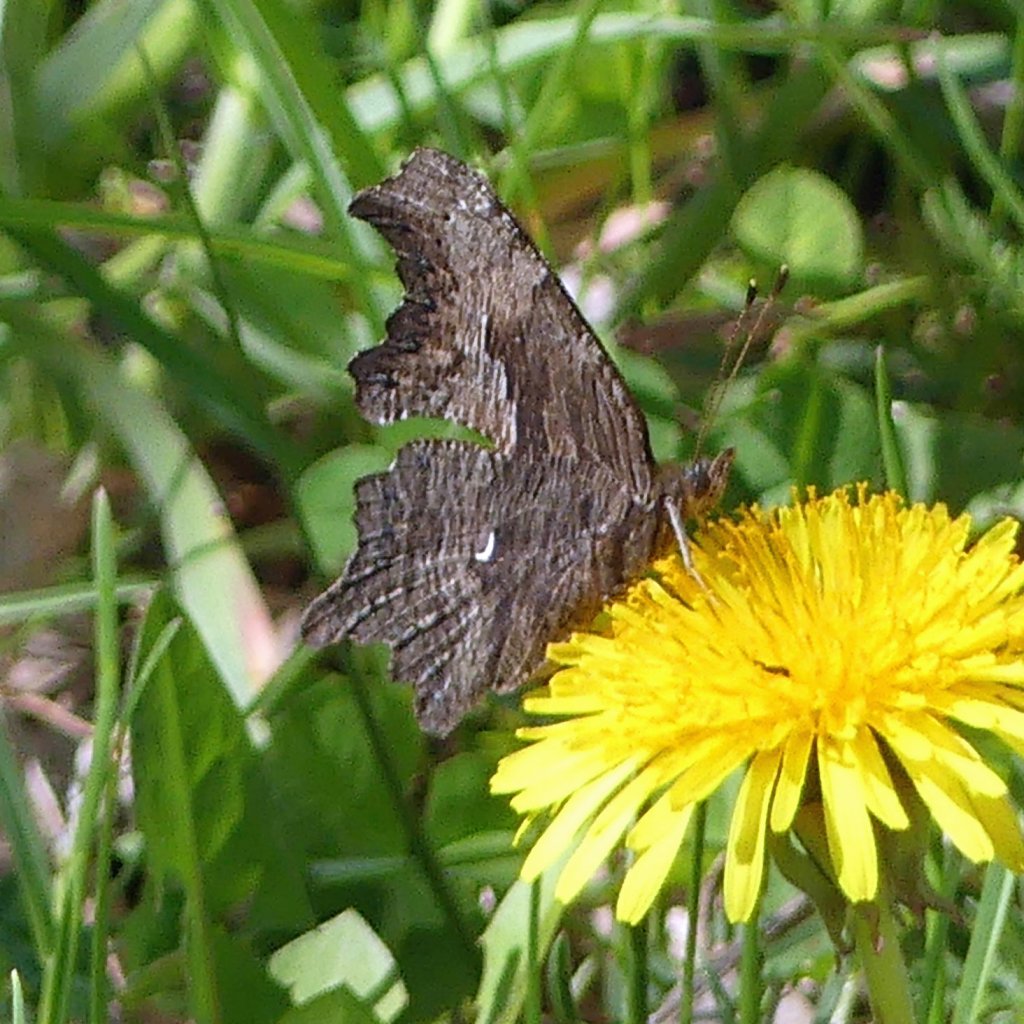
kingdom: Animalia
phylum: Arthropoda
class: Insecta
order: Lepidoptera
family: Nymphalidae
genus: Polygonia
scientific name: Polygonia progne
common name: Gray Comma
